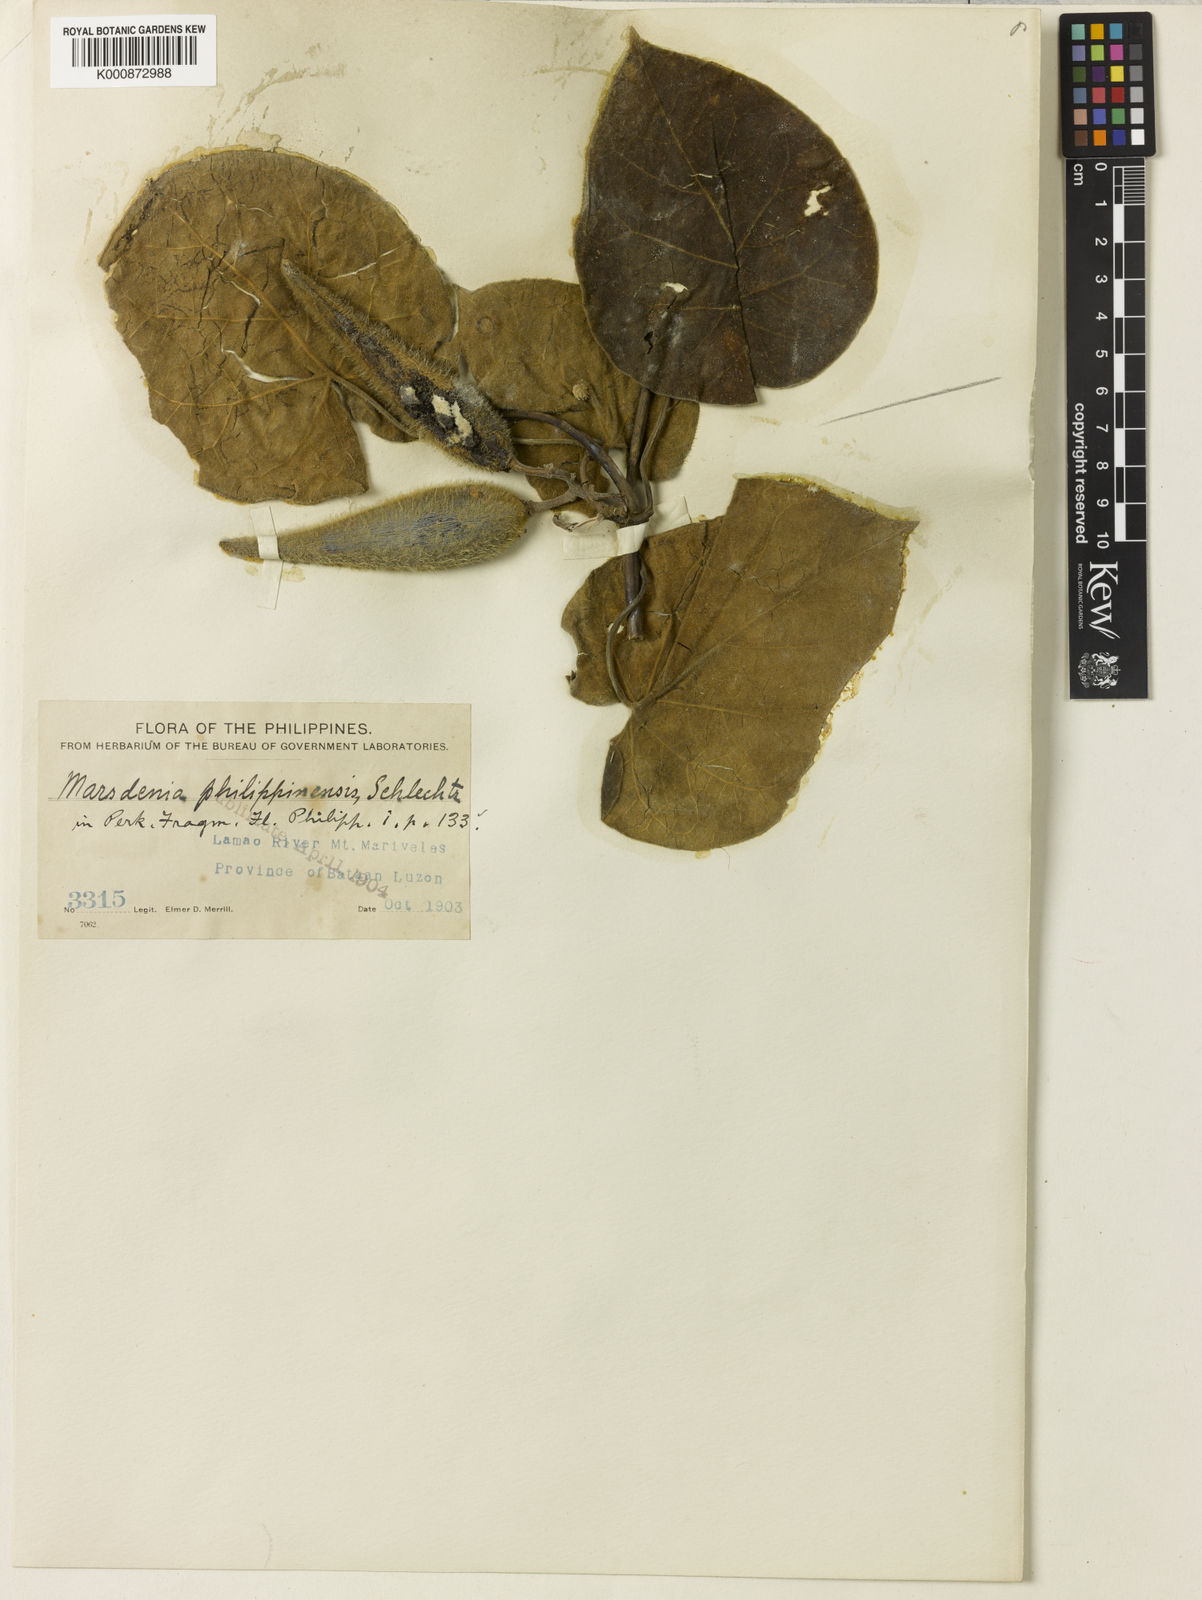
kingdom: Plantae
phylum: Tracheophyta
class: Magnoliopsida
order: Gentianales
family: Apocynaceae
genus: Gongronemopsis
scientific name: Gongronemopsis philippinensis
